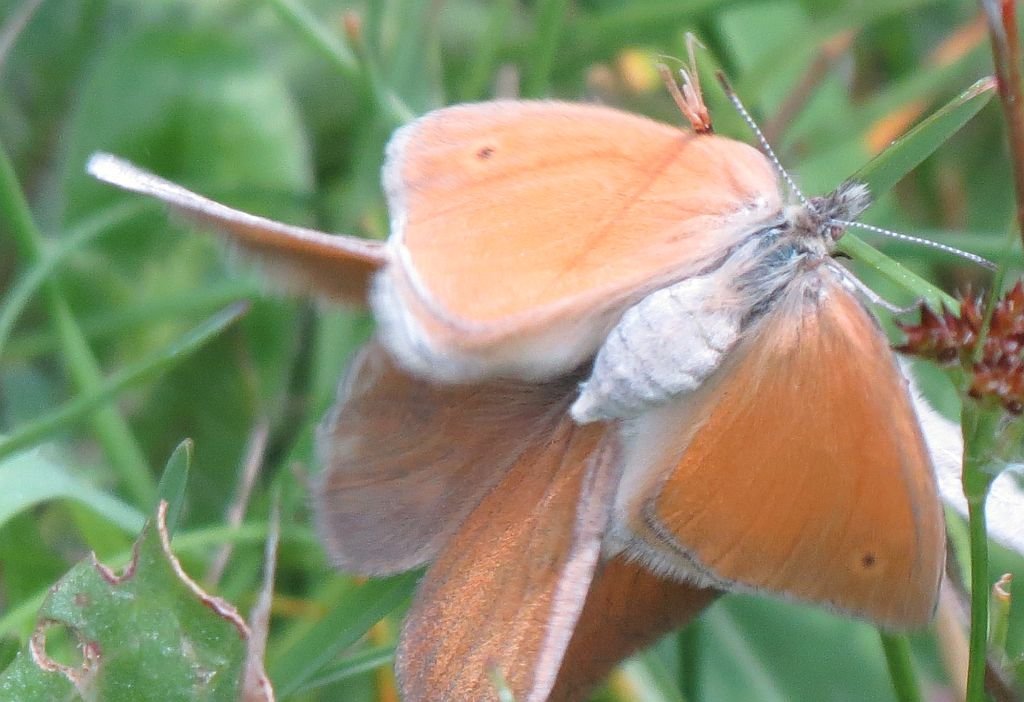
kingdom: Animalia
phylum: Arthropoda
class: Insecta
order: Lepidoptera
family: Nymphalidae
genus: Coenonympha
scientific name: Coenonympha tullia
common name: Large Heath
